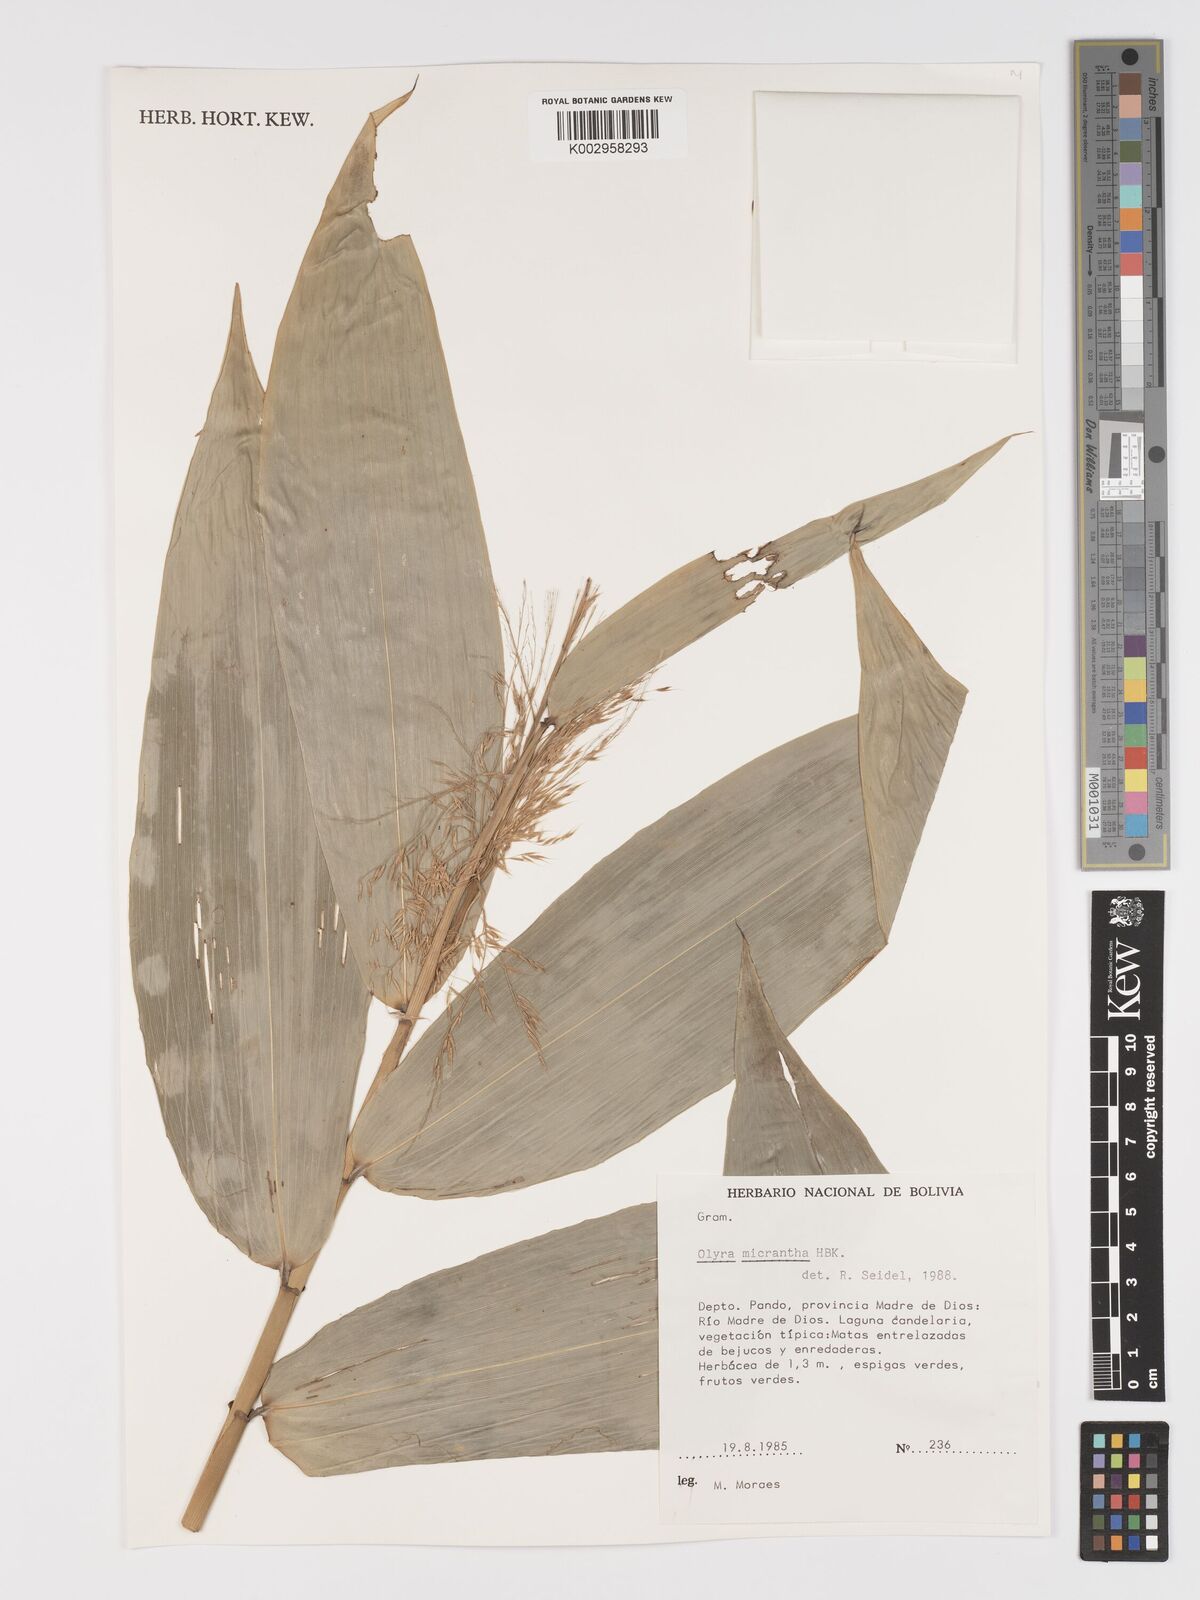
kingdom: Plantae
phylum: Tracheophyta
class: Liliopsida
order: Poales
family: Poaceae
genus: Taquara
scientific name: Taquara micrantha
